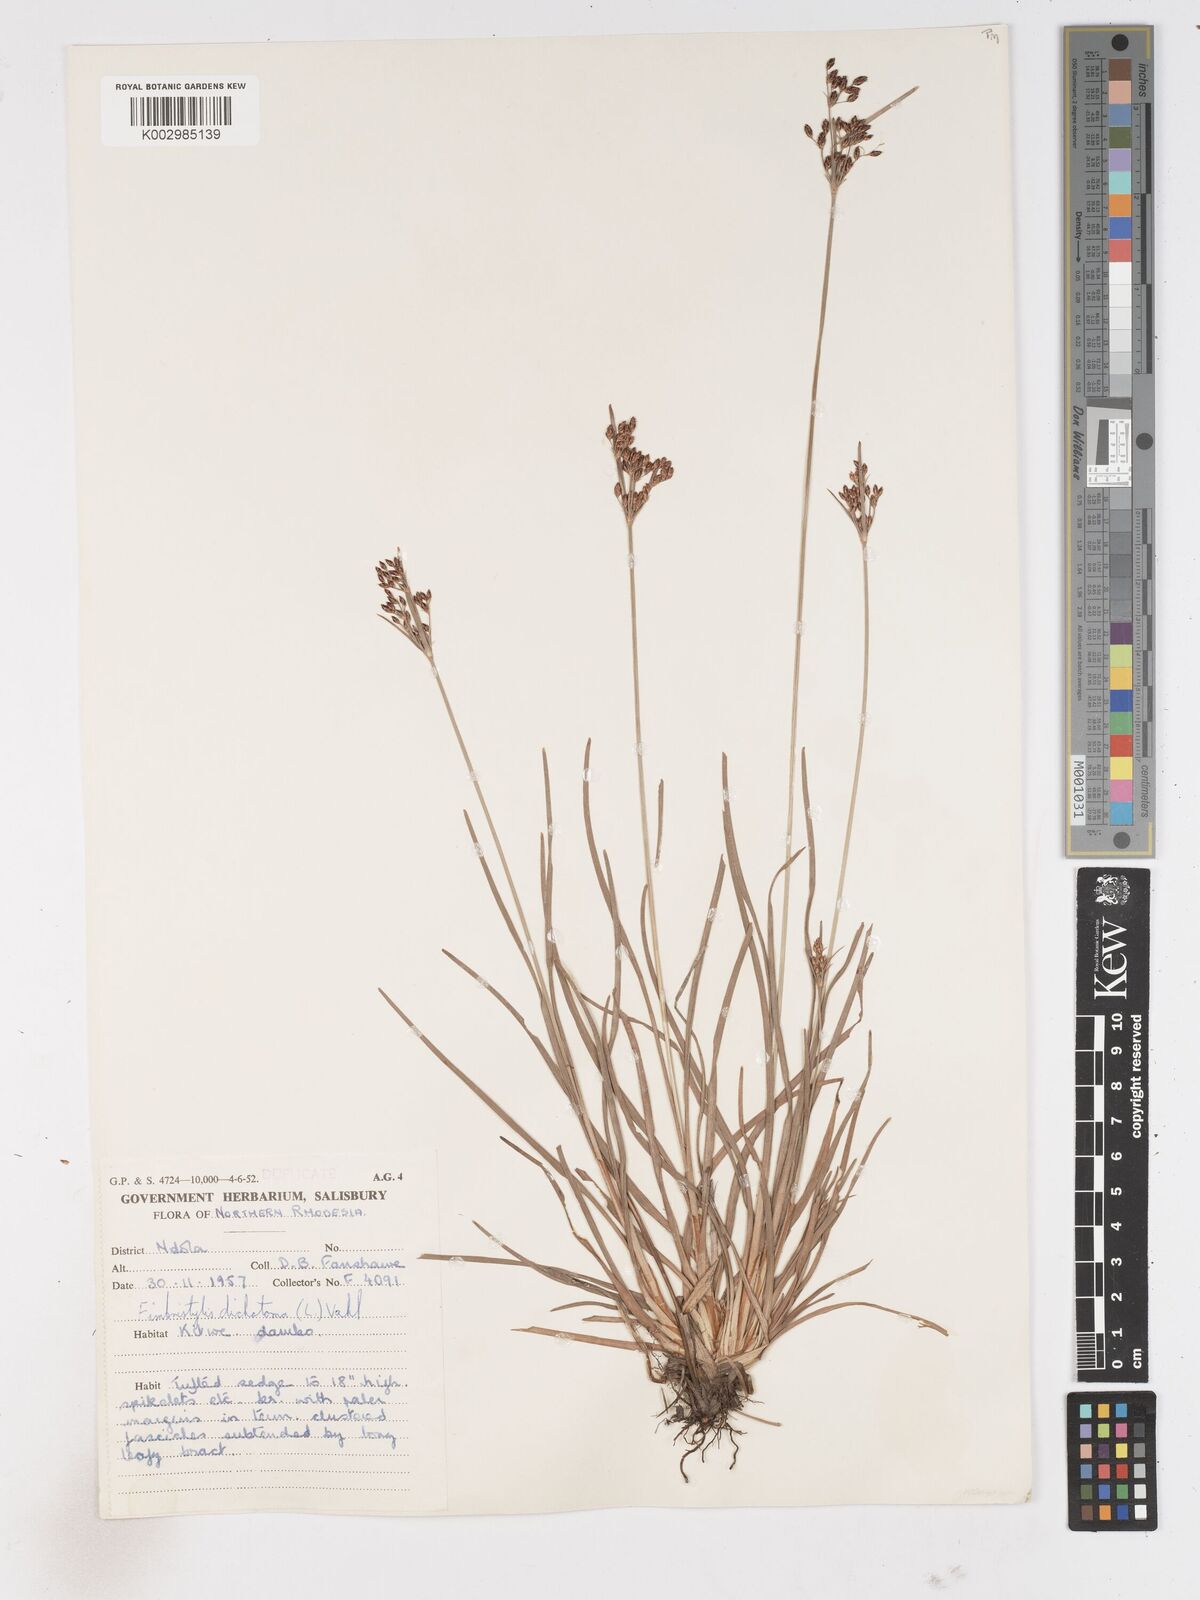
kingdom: Plantae
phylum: Tracheophyta
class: Liliopsida
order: Poales
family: Cyperaceae
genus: Fimbristylis
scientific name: Fimbristylis dichotoma
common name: Forked fimbry
